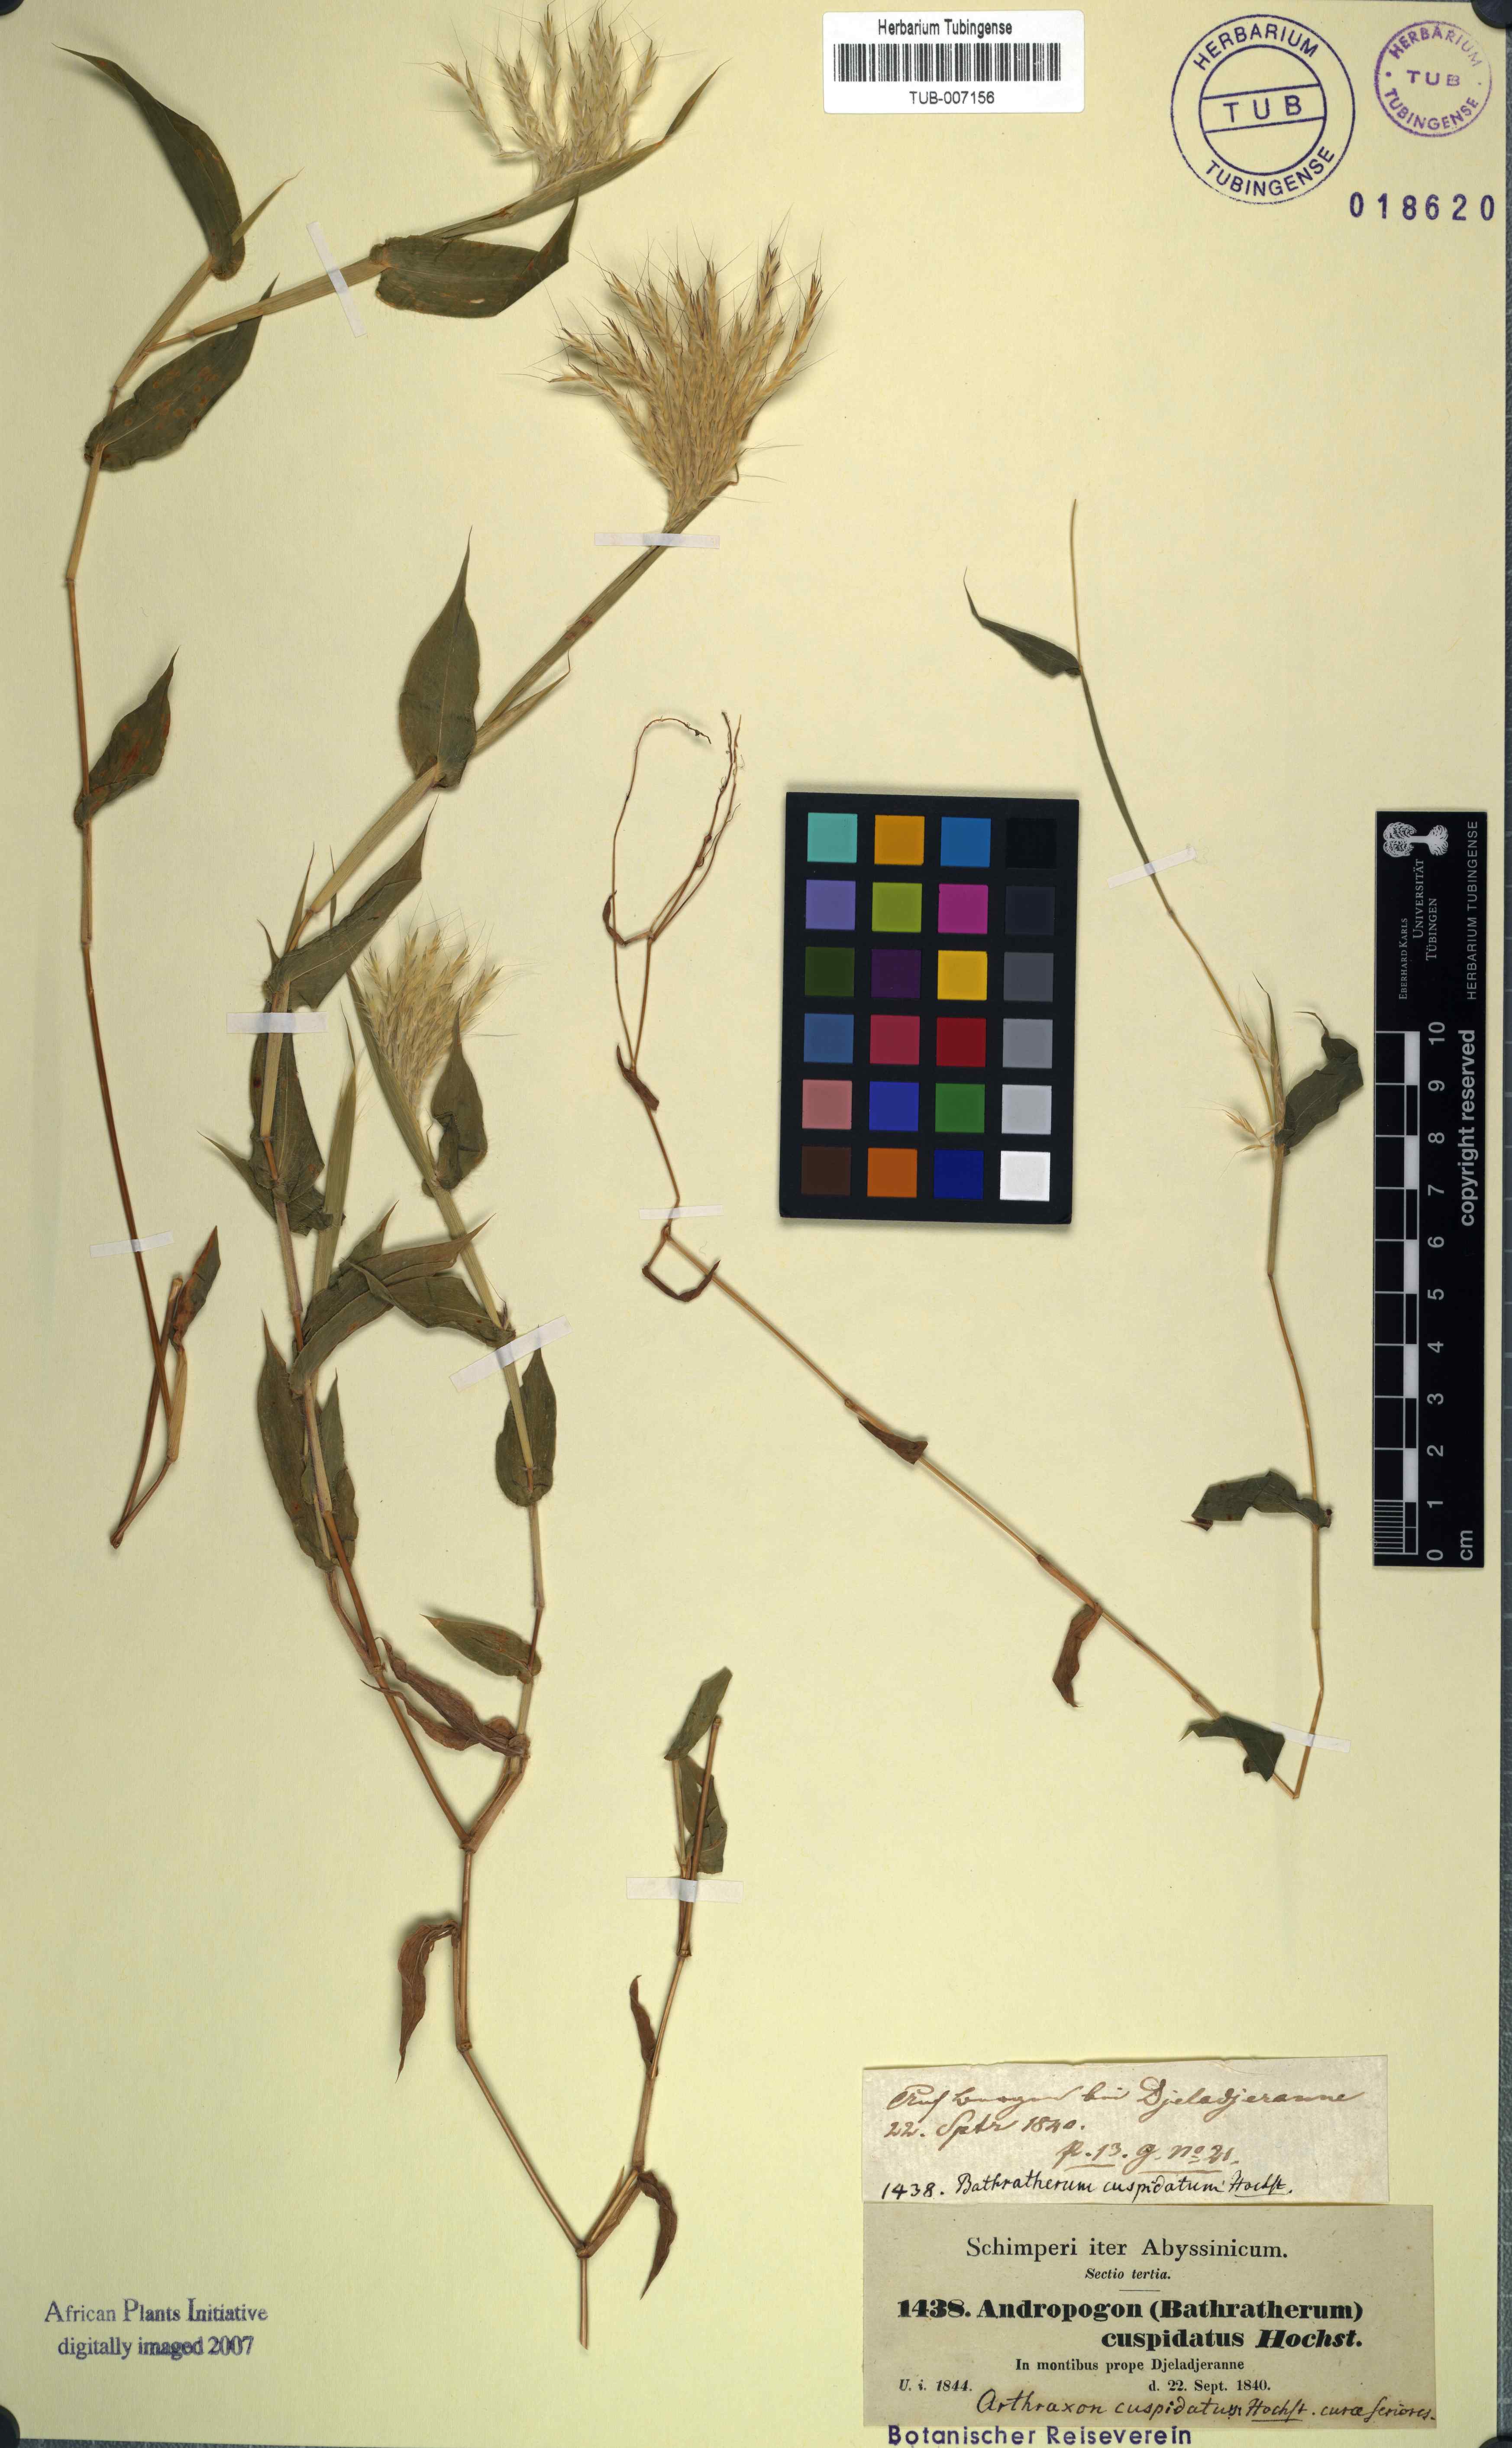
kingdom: Plantae
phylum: Tracheophyta
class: Liliopsida
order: Poales
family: Poaceae
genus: Arthraxon
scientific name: Arthraxon cuspidatus
